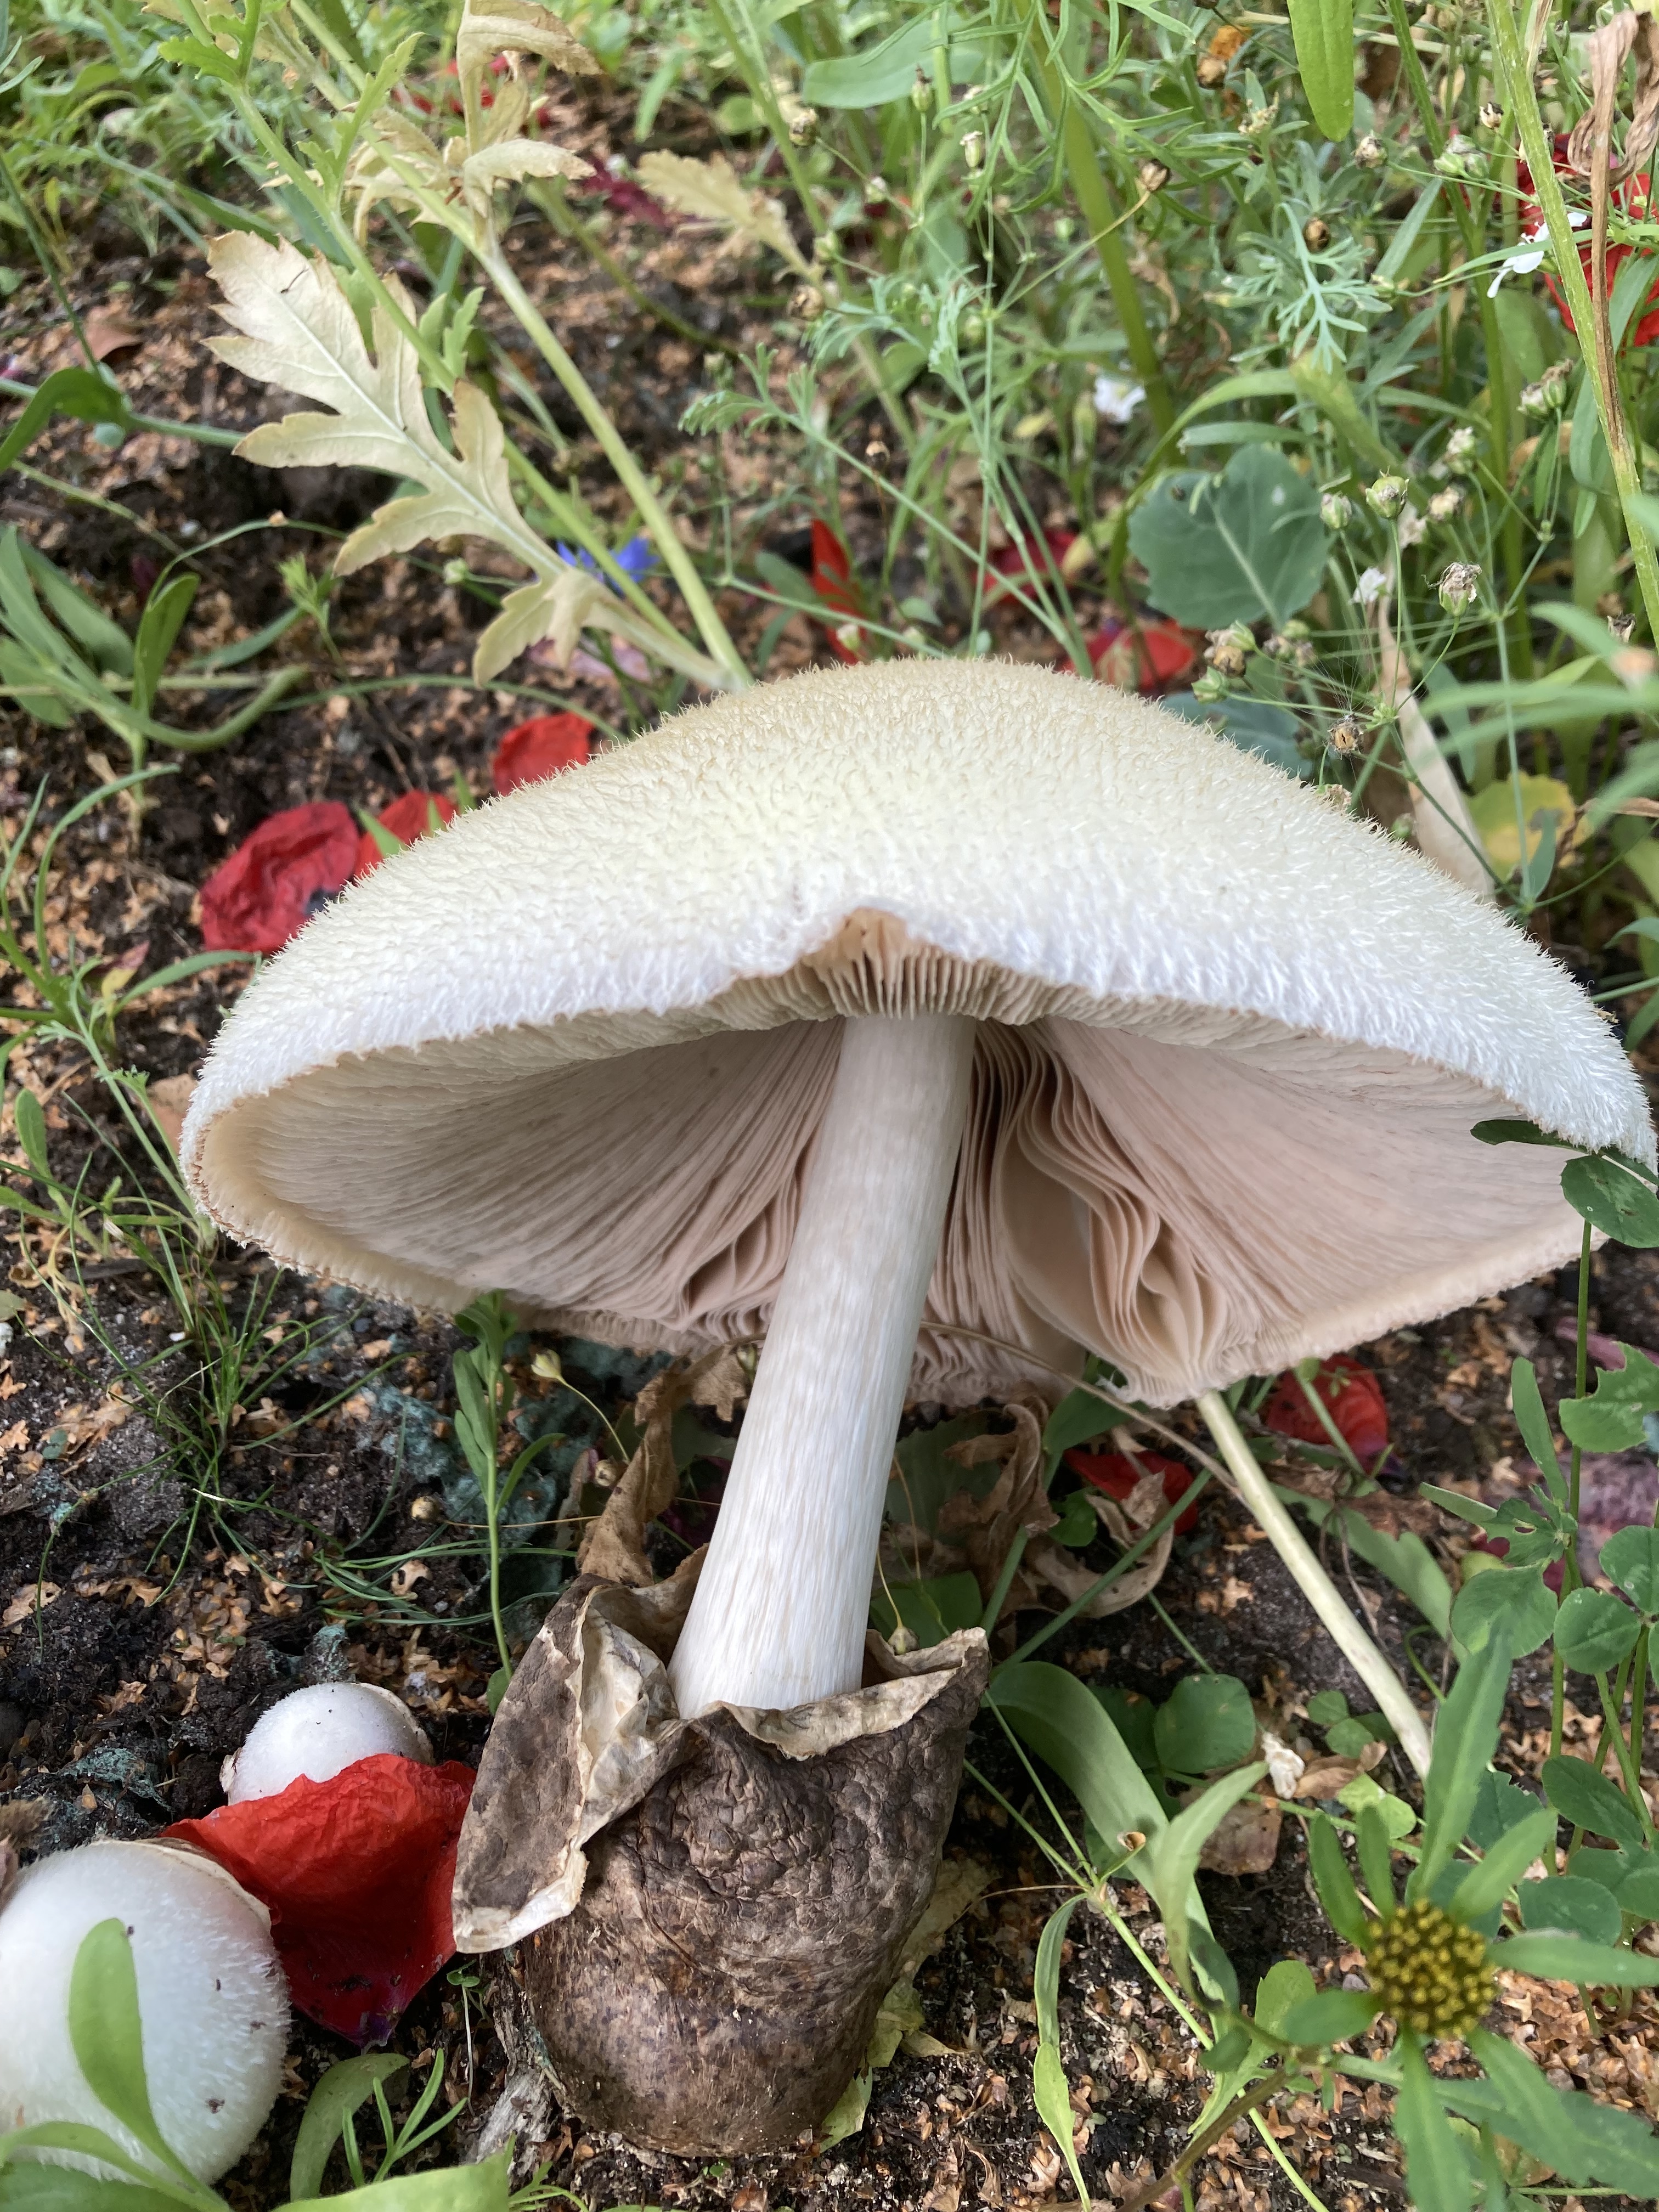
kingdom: Fungi
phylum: Basidiomycota
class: Agaricomycetes
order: Agaricales
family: Pluteaceae
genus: Volvariella
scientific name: Volvariella bombycina
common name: Silky rosegill
